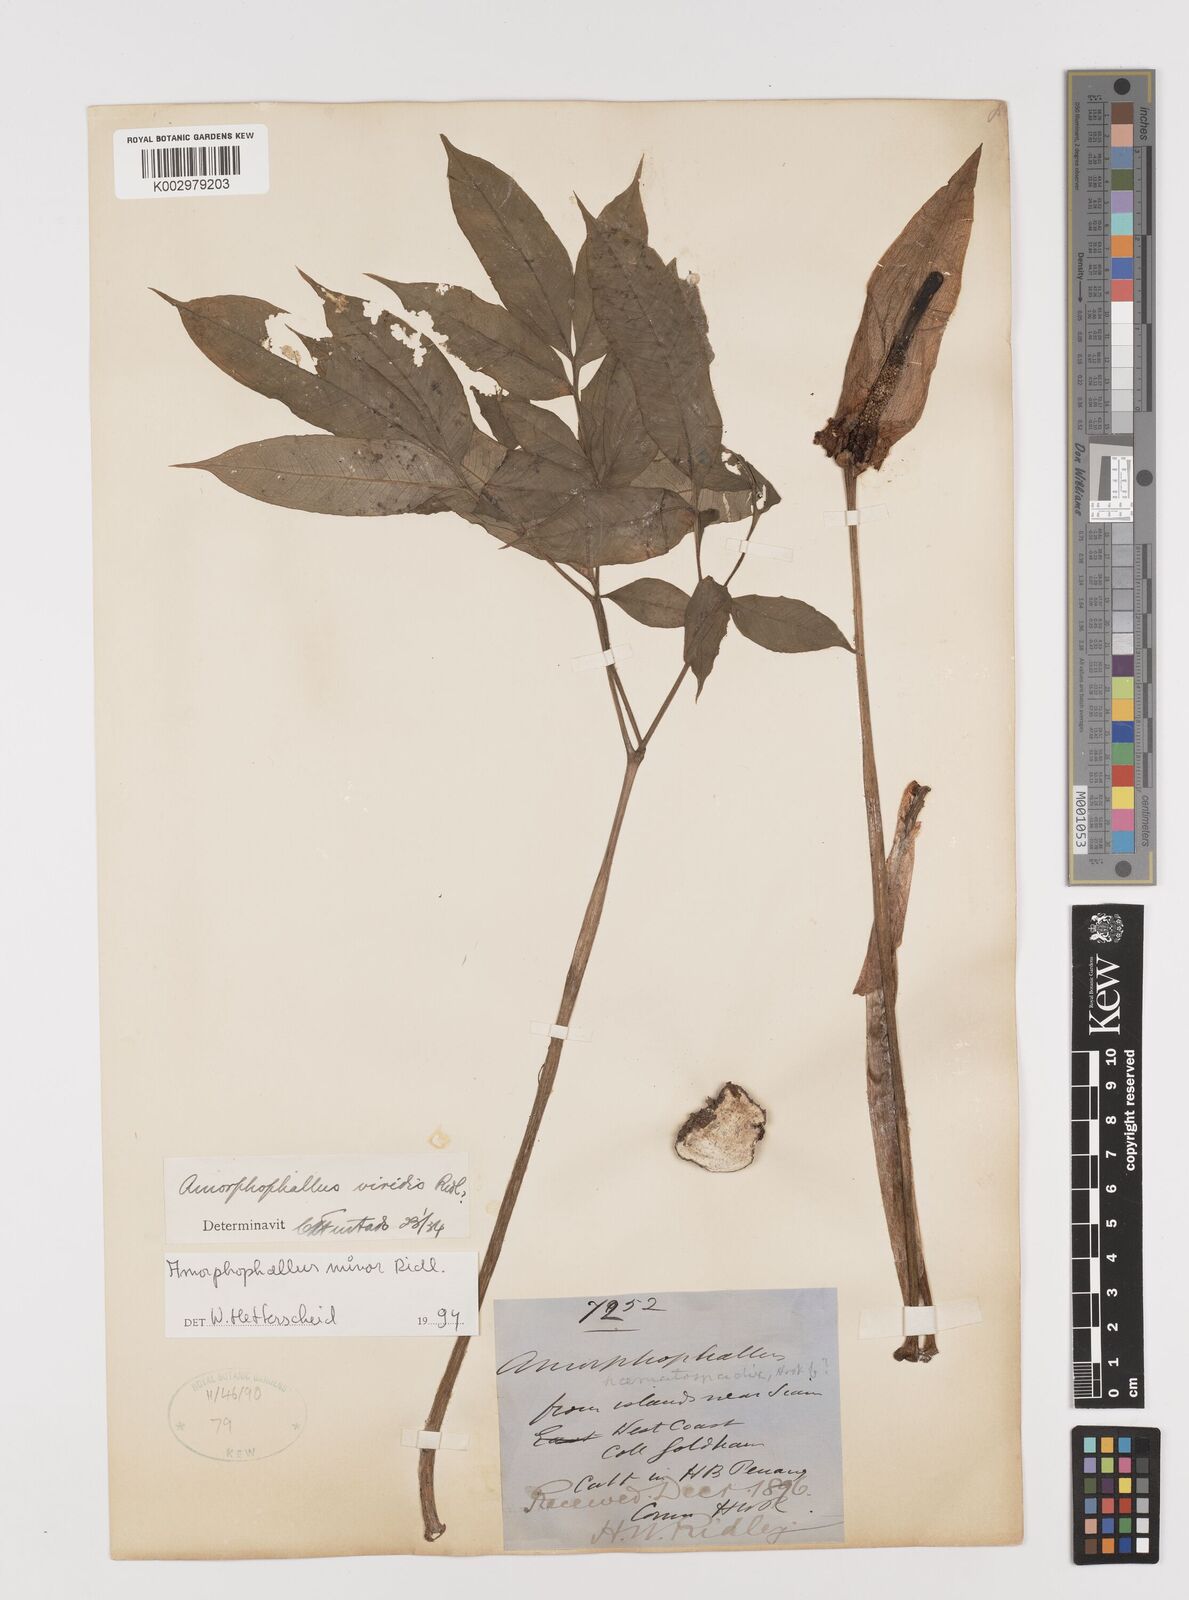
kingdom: Plantae
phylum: Tracheophyta
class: Liliopsida
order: Alismatales
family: Araceae
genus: Amorphophallus
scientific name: Amorphophallus minor
